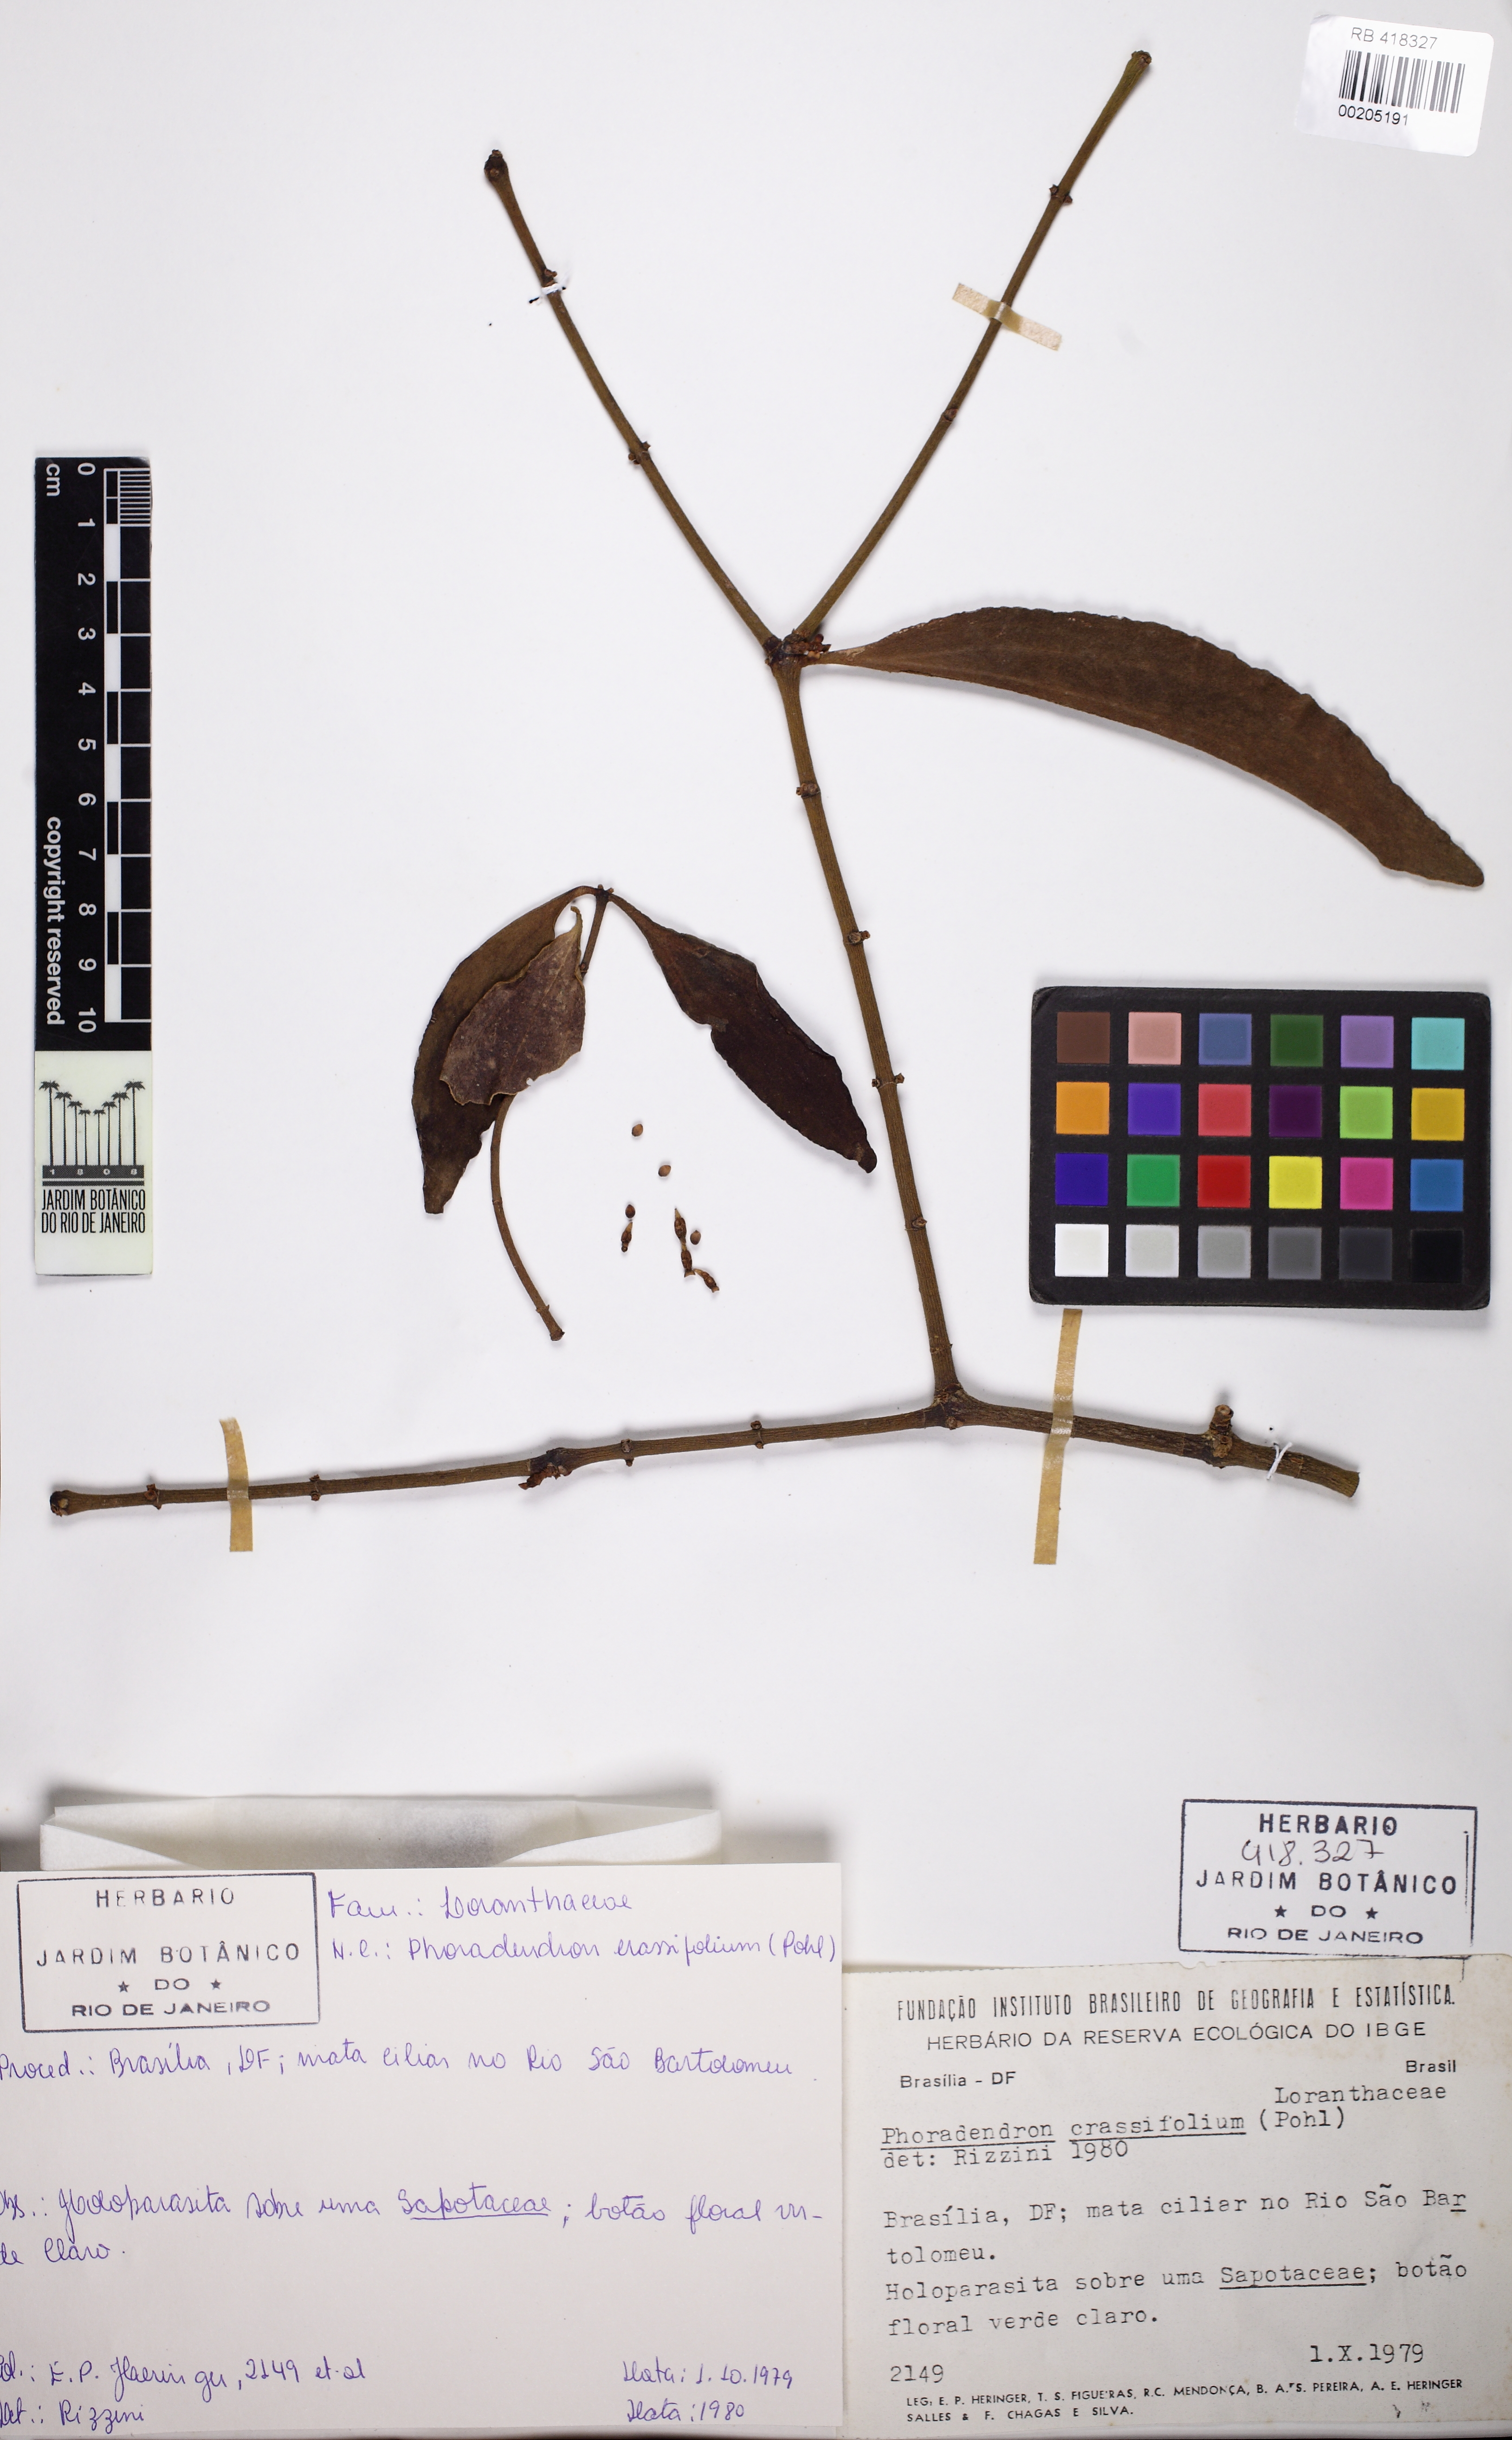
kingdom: Plantae
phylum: Tracheophyta
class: Magnoliopsida
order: Santalales
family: Viscaceae
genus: Phoradendron
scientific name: Phoradendron crassifolium
